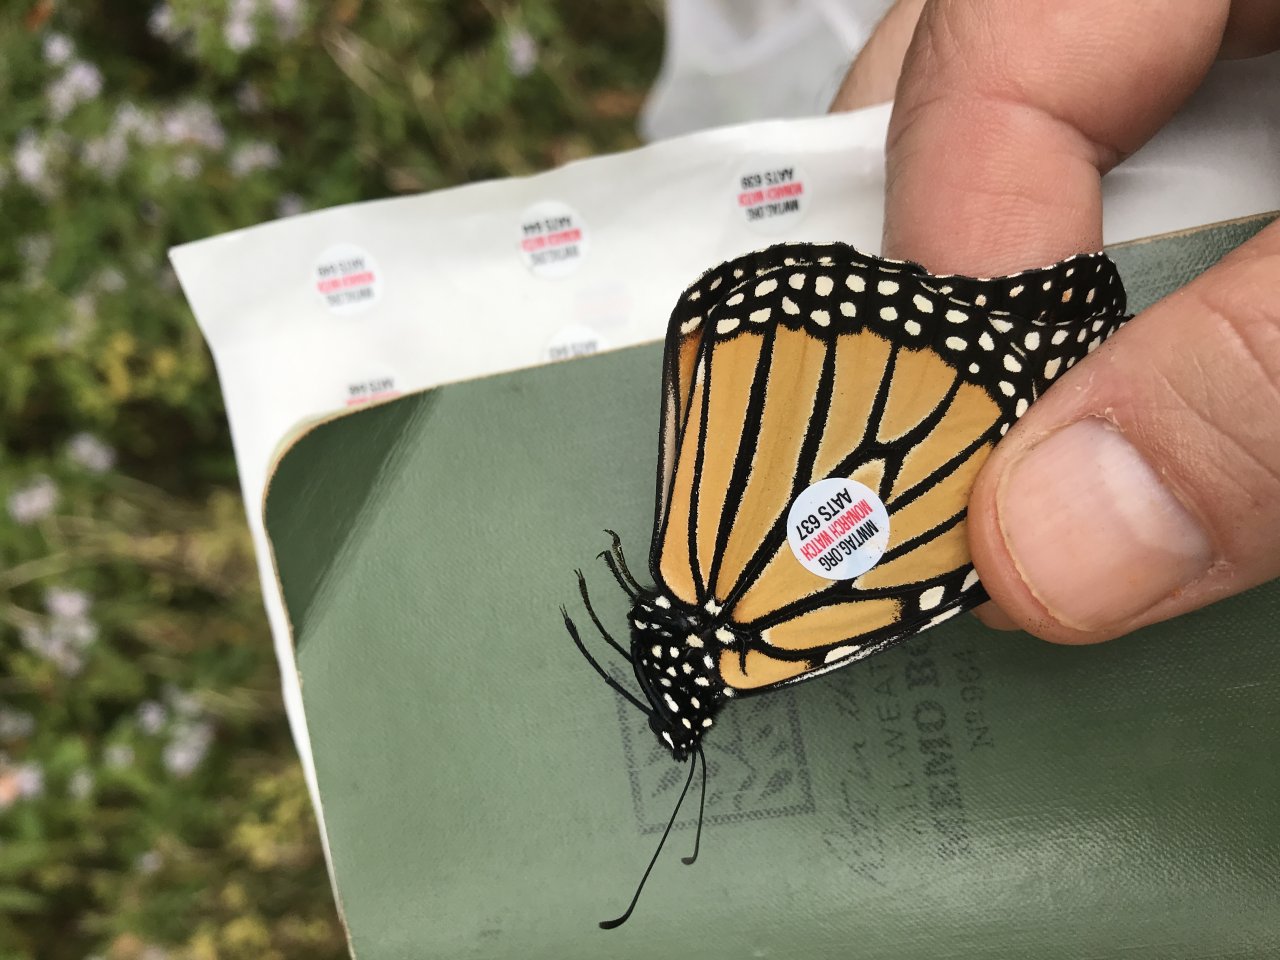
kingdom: Animalia
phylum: Arthropoda
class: Insecta
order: Lepidoptera
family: Nymphalidae
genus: Danaus
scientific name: Danaus plexippus
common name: Monarch
